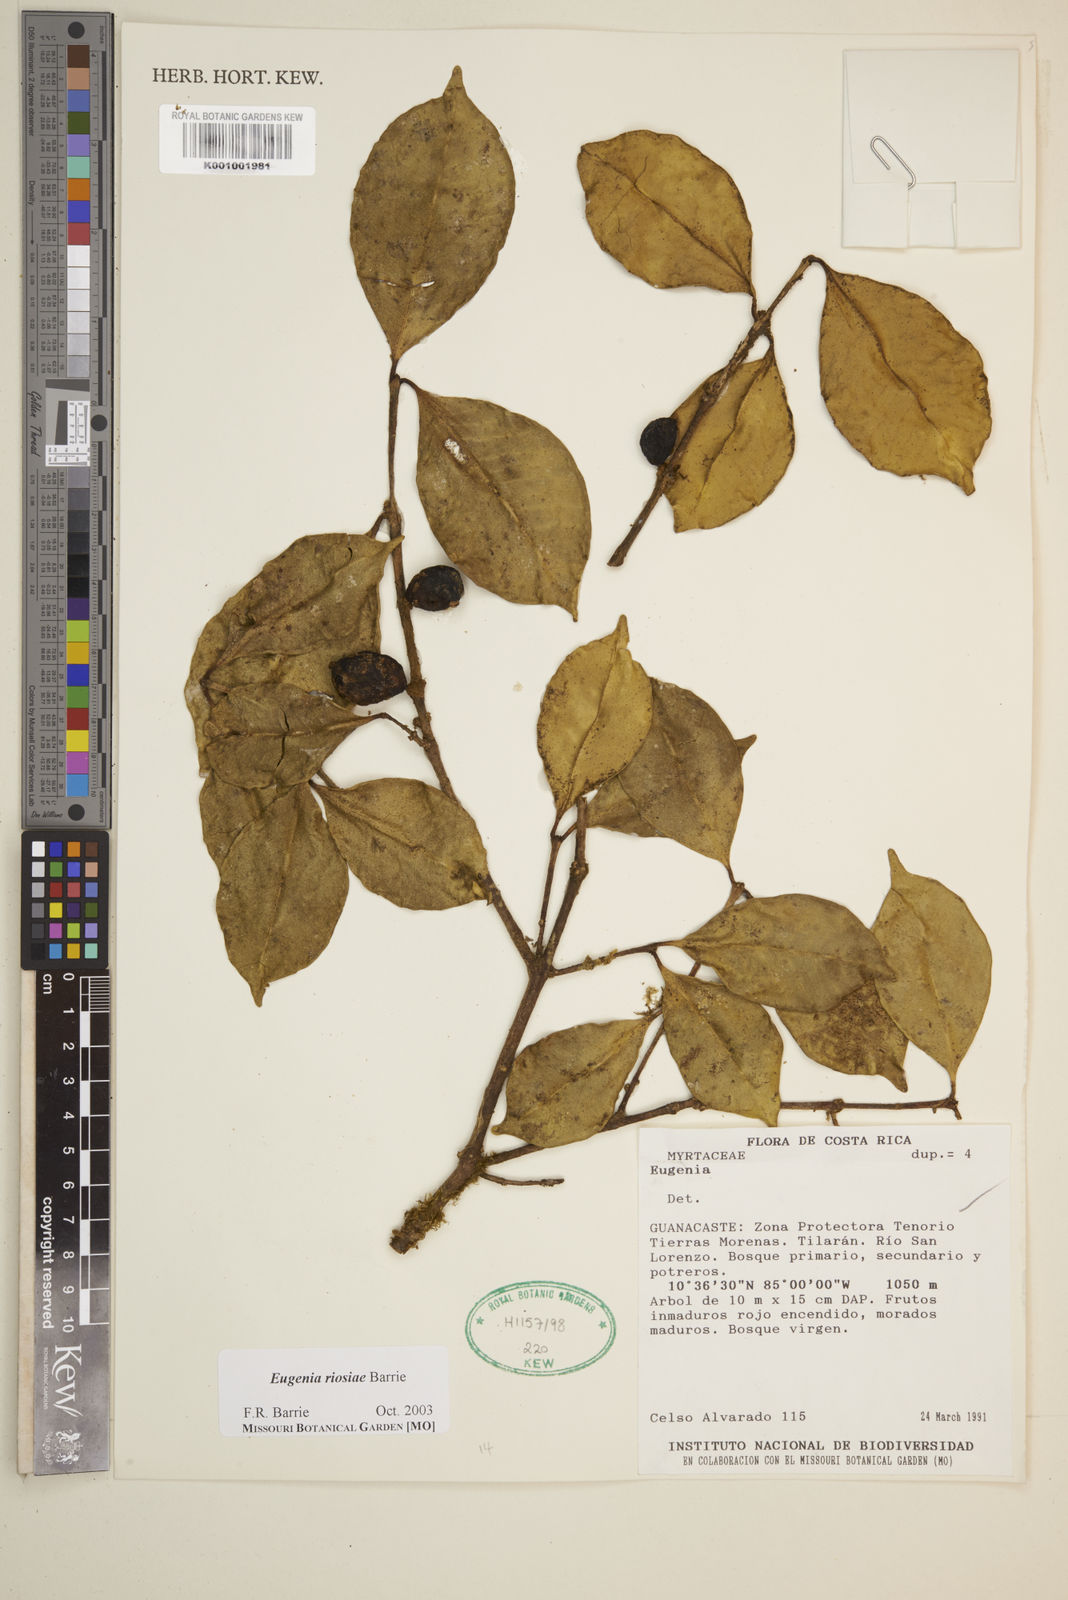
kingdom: Plantae
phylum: Tracheophyta
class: Magnoliopsida
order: Myrtales
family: Myrtaceae
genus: Eugenia
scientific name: Eugenia riosiae
